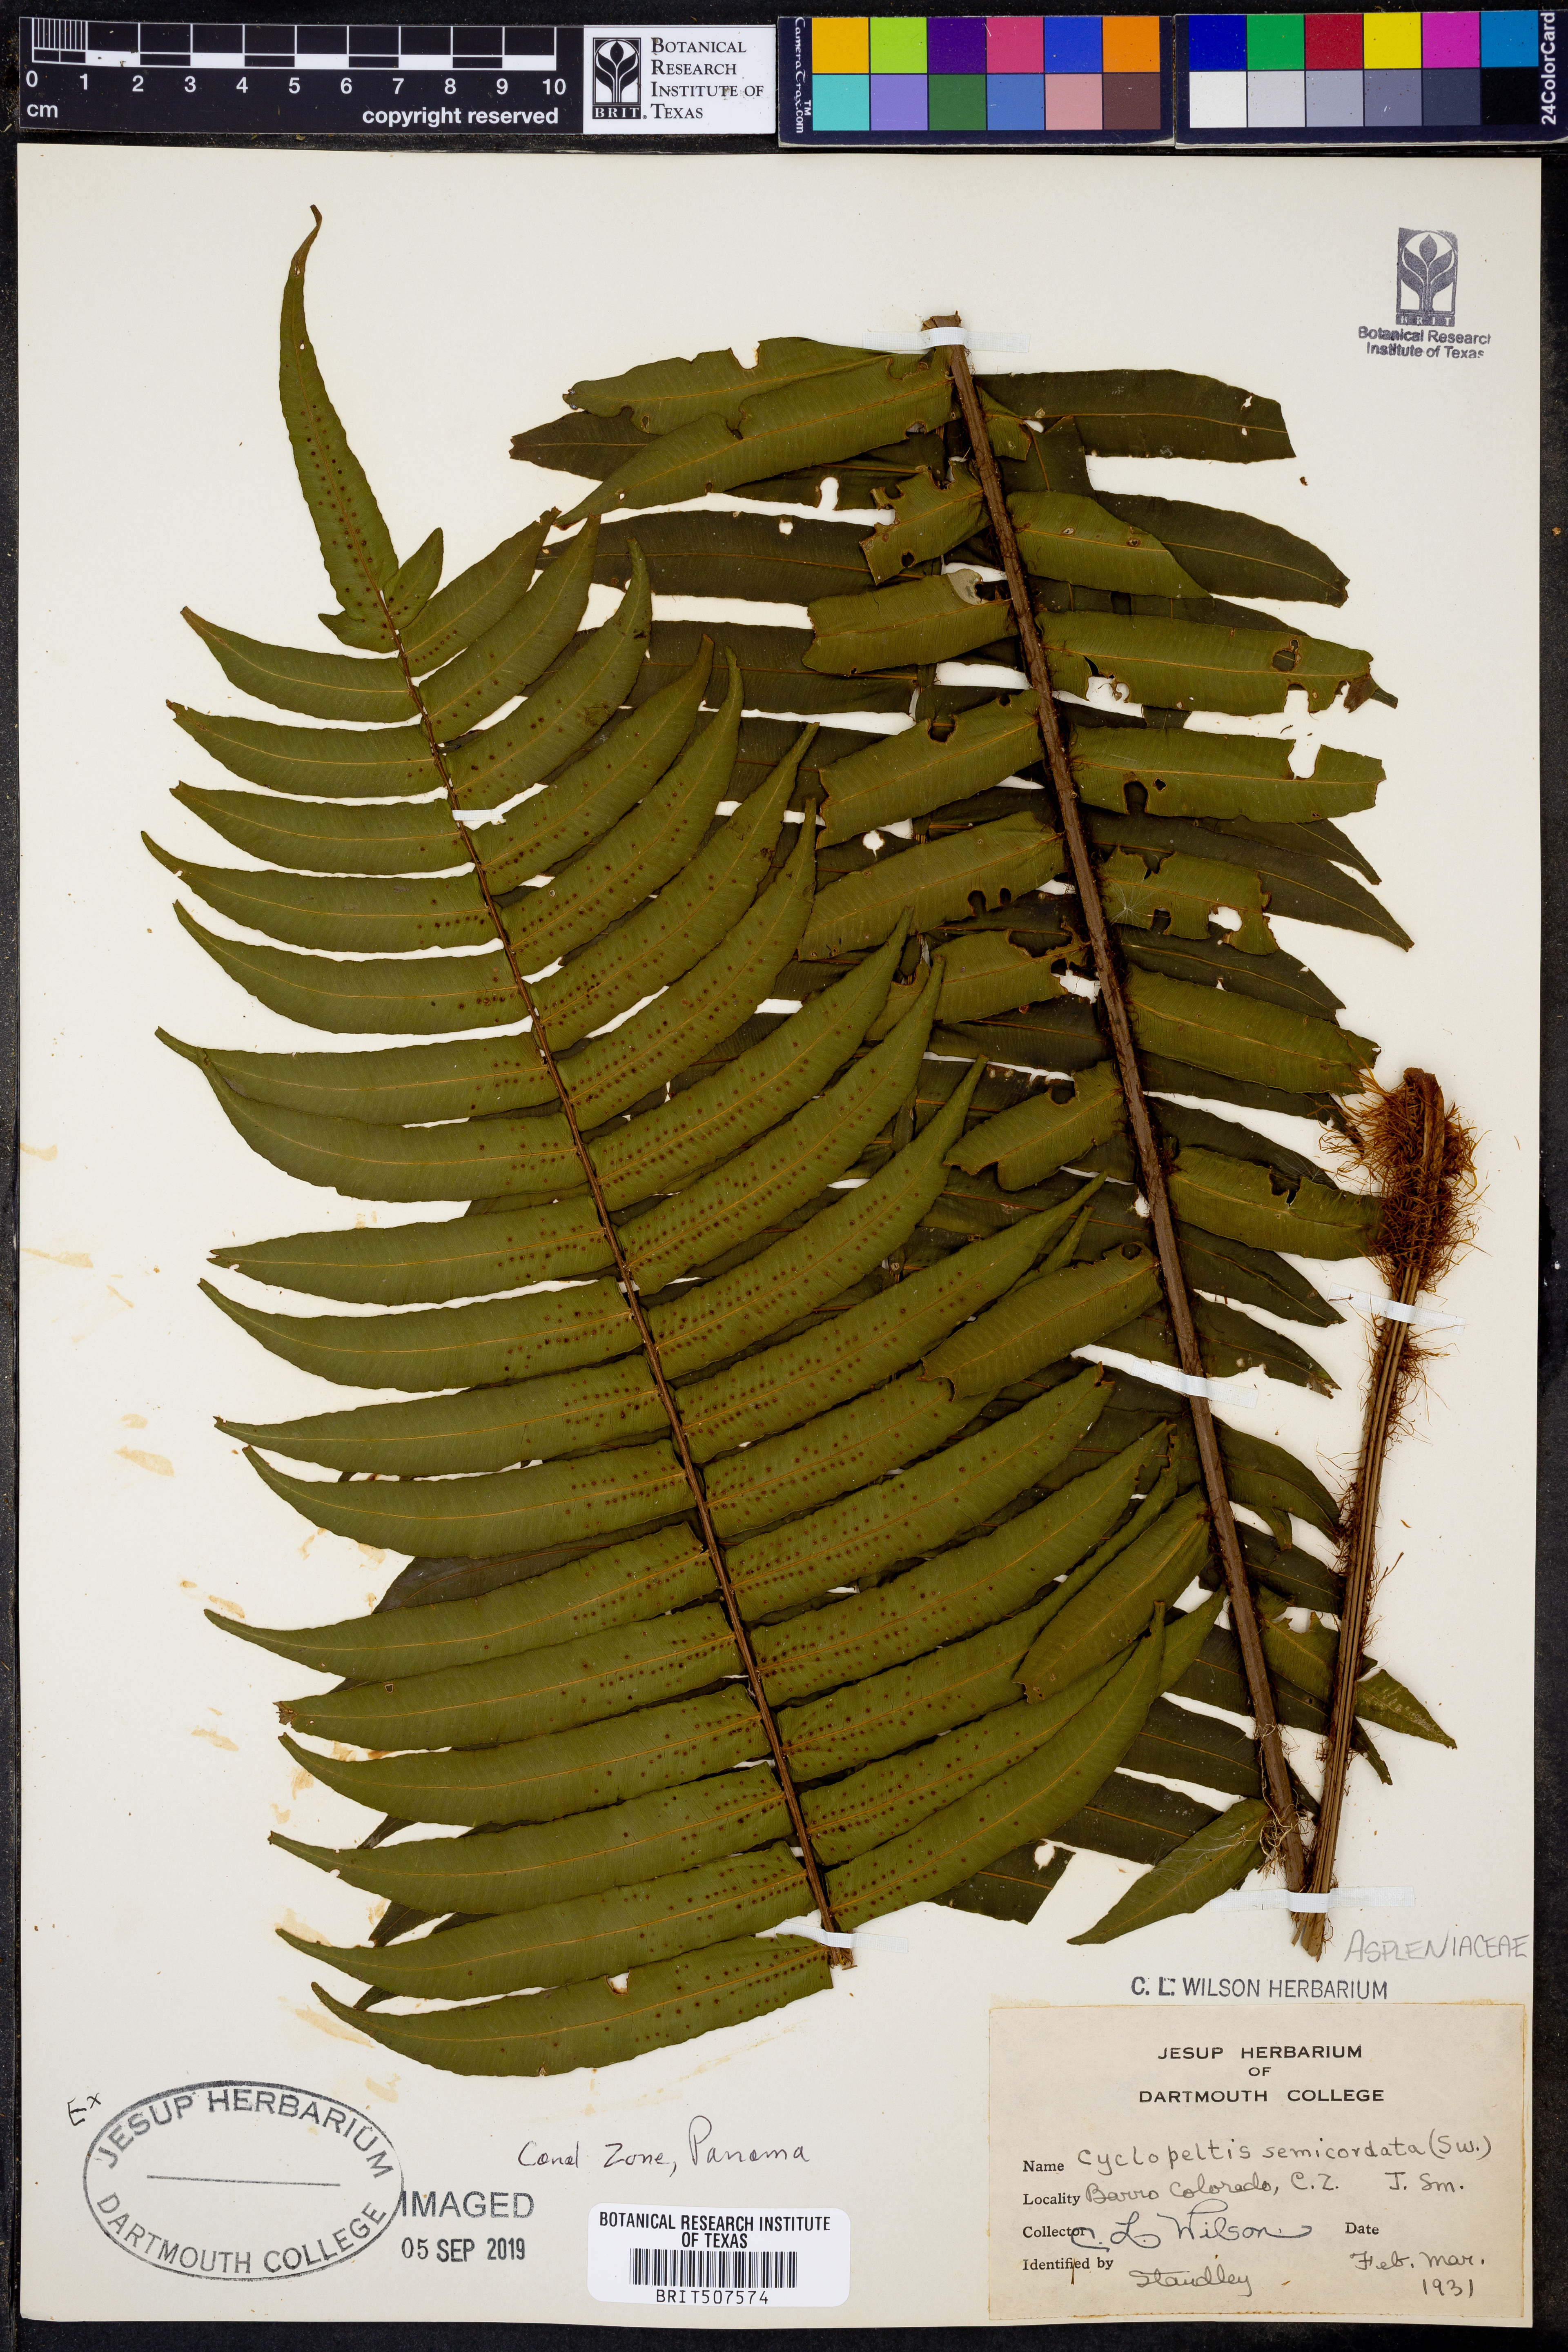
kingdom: Plantae
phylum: Tracheophyta
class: Polypodiopsida
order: Polypodiales
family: Lomariopsidaceae
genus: Cyclopeltis
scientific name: Cyclopeltis semicordata
